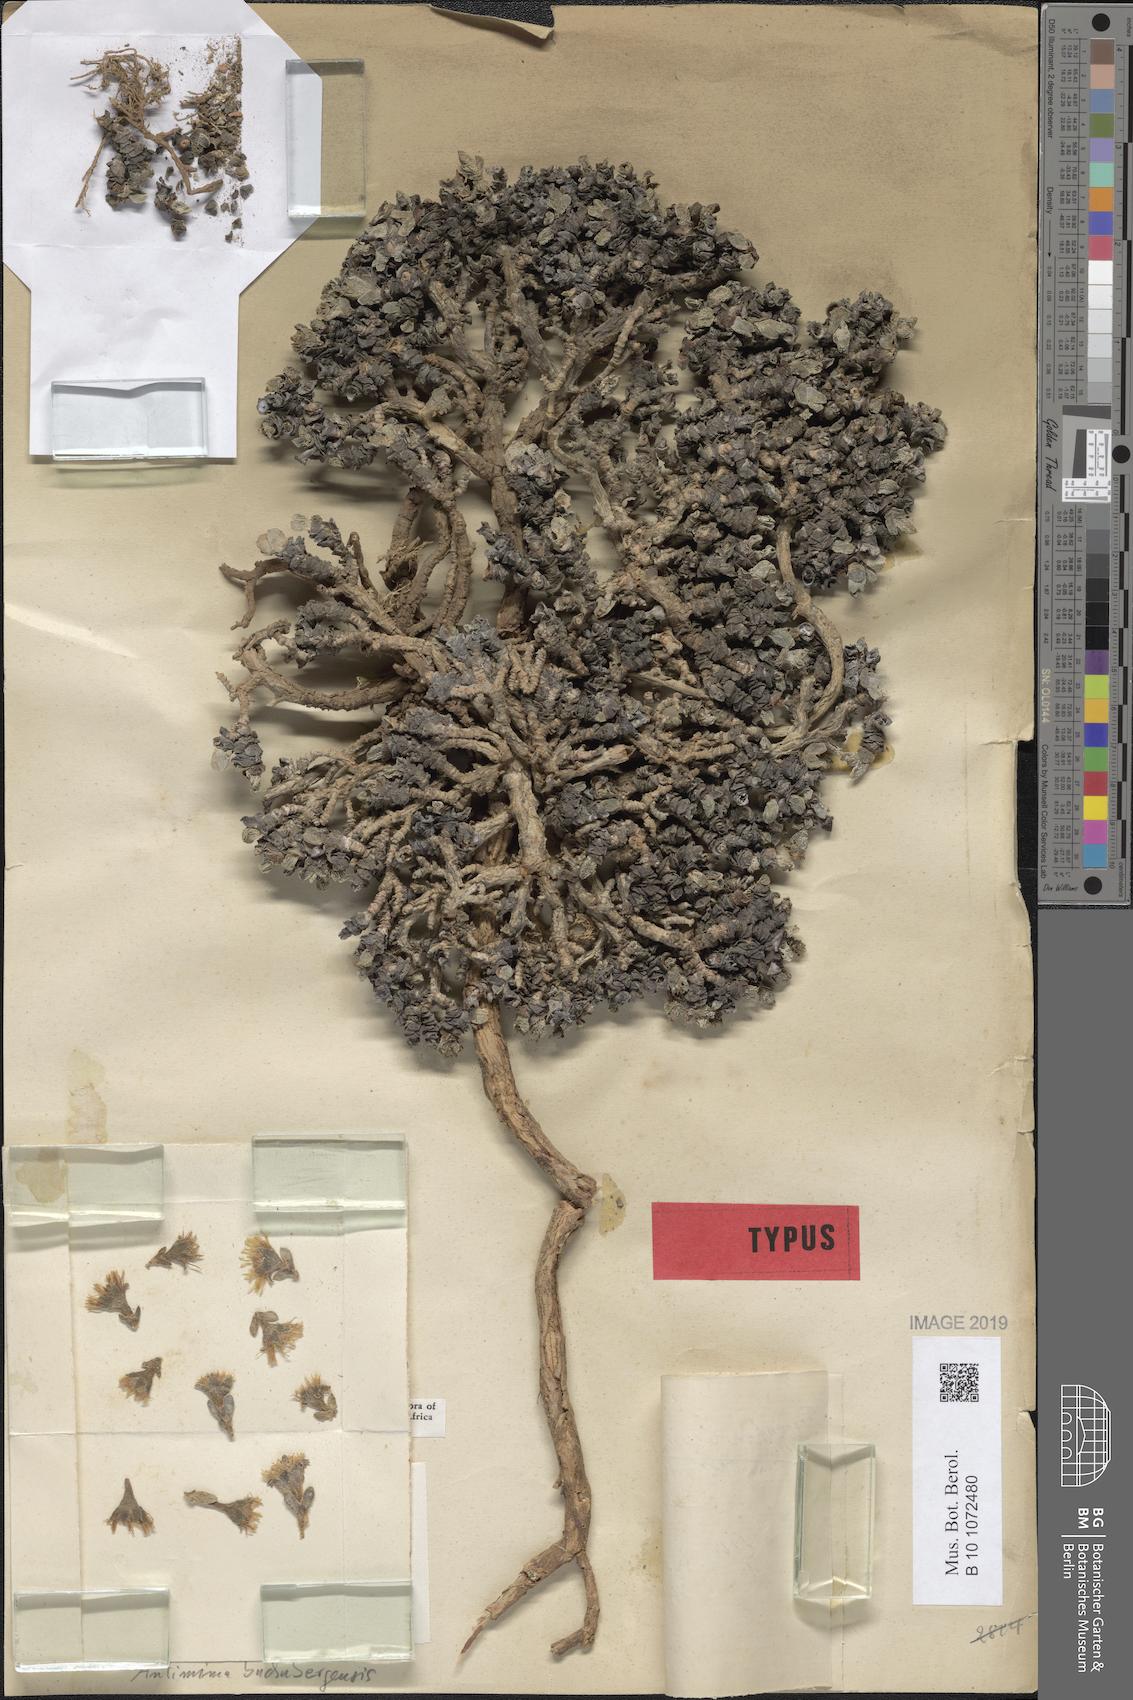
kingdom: Plantae
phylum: Tracheophyta
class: Magnoliopsida
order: Caryophyllales
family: Aizoaceae
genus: Antimima
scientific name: Antimima buchubergensis
